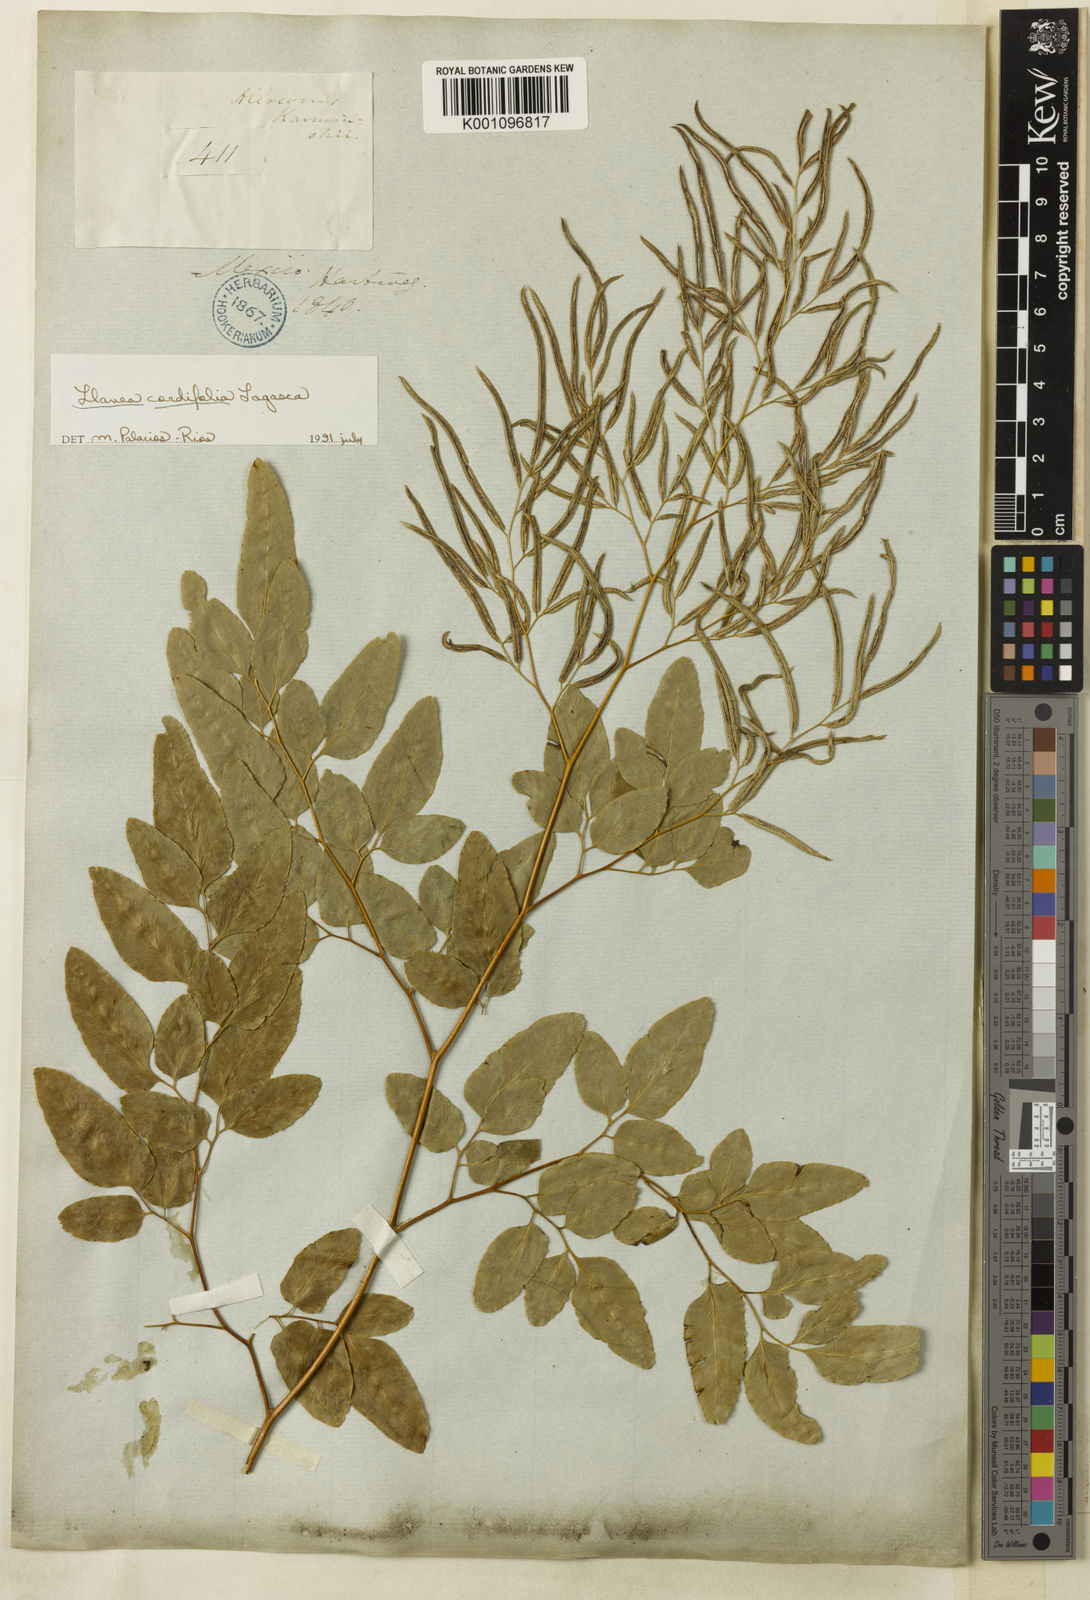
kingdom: Plantae
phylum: Tracheophyta
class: Polypodiopsida
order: Polypodiales
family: Pteridaceae
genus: Llavea
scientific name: Llavea cordifolia
